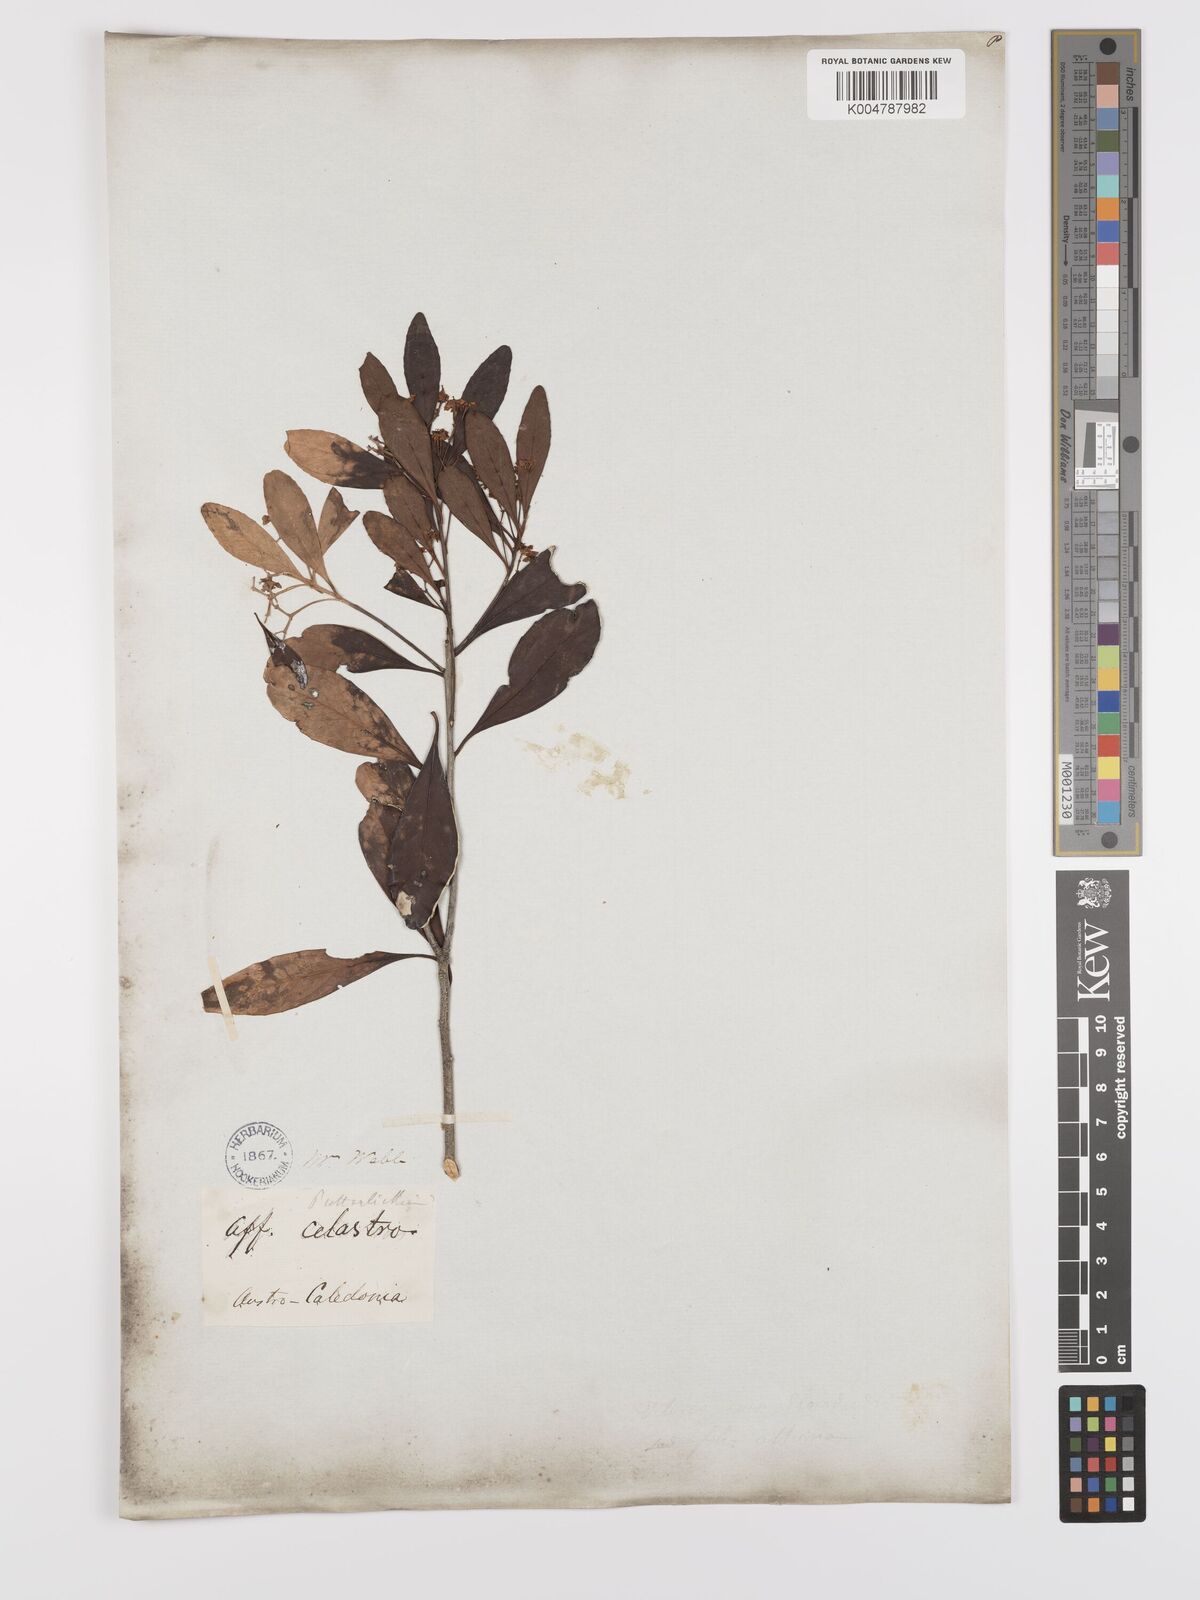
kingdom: Plantae
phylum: Tracheophyta
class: Magnoliopsida
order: Celastrales
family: Celastraceae
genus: Denhamia
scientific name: Denhamia
